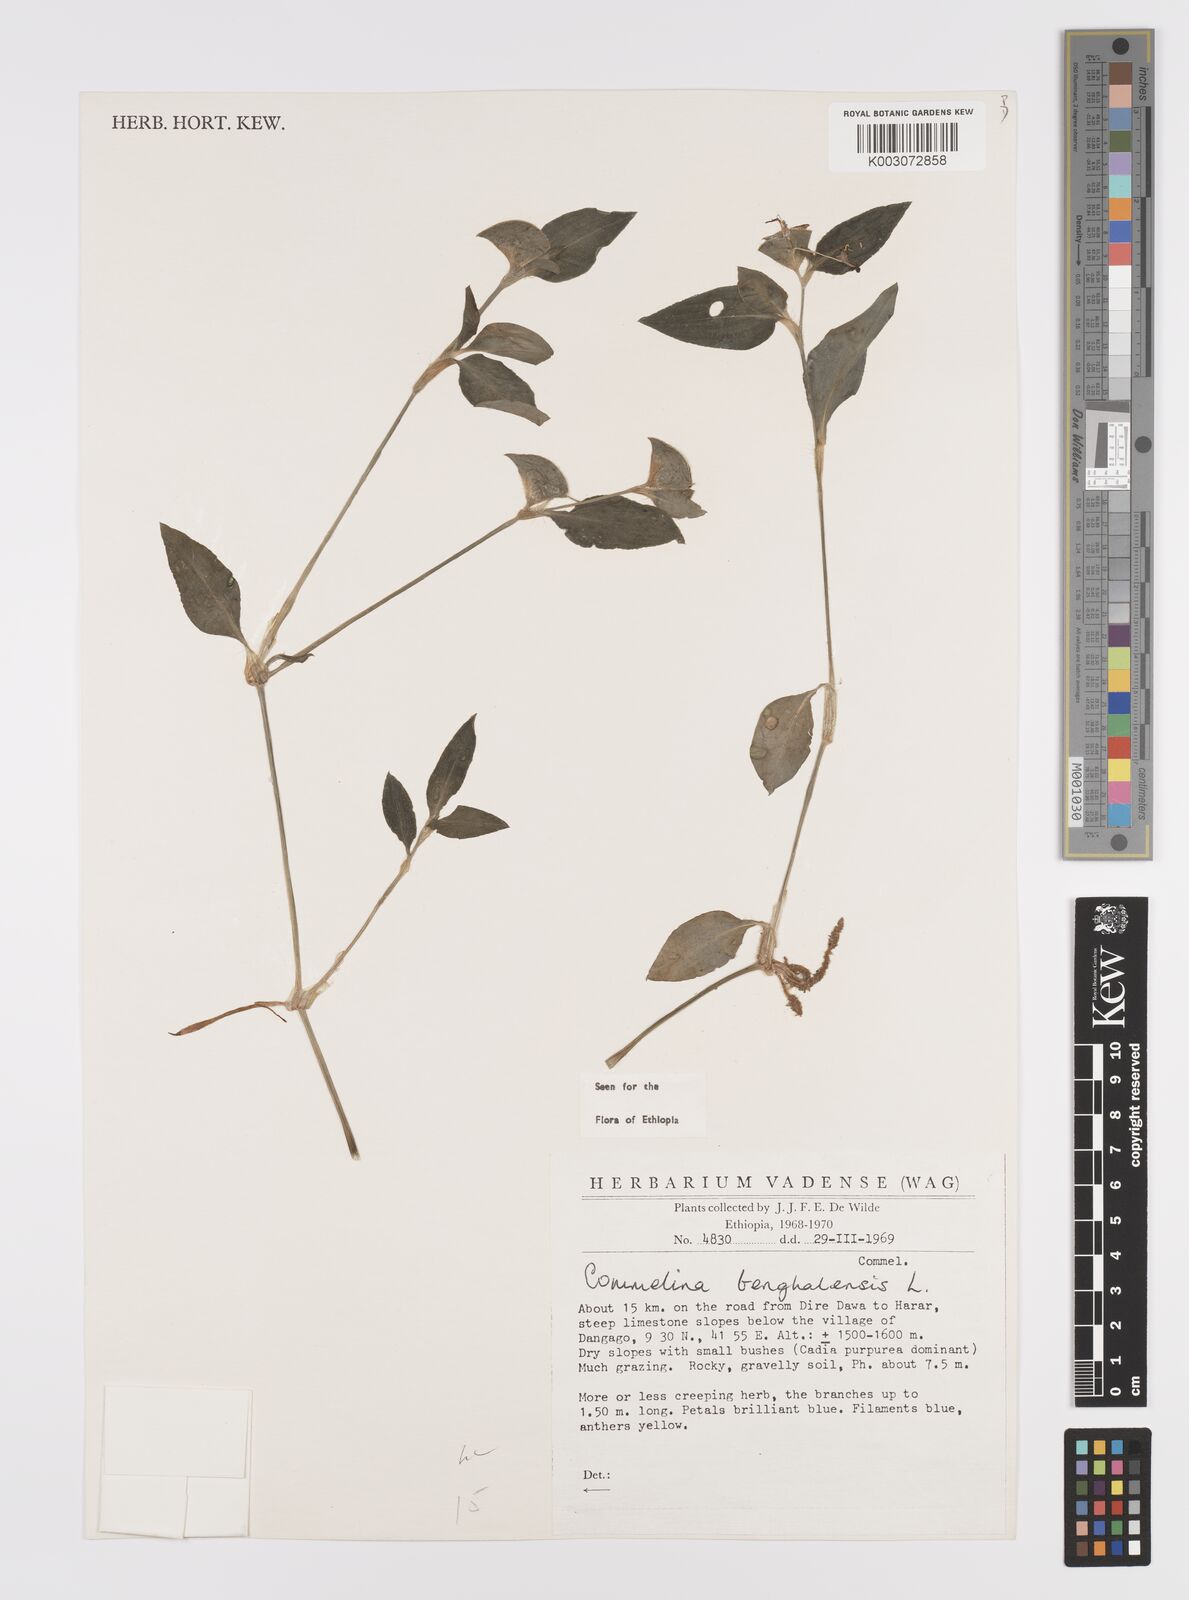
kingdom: Plantae
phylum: Tracheophyta
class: Liliopsida
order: Commelinales
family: Commelinaceae
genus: Commelina
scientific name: Commelina benghalensis
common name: Jio
